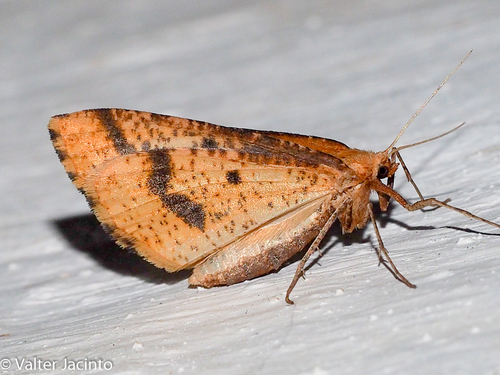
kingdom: Animalia
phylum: Arthropoda
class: Insecta
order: Lepidoptera
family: Geometridae
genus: Aspitates
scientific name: Aspitates ochrearia
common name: Yellow belle
